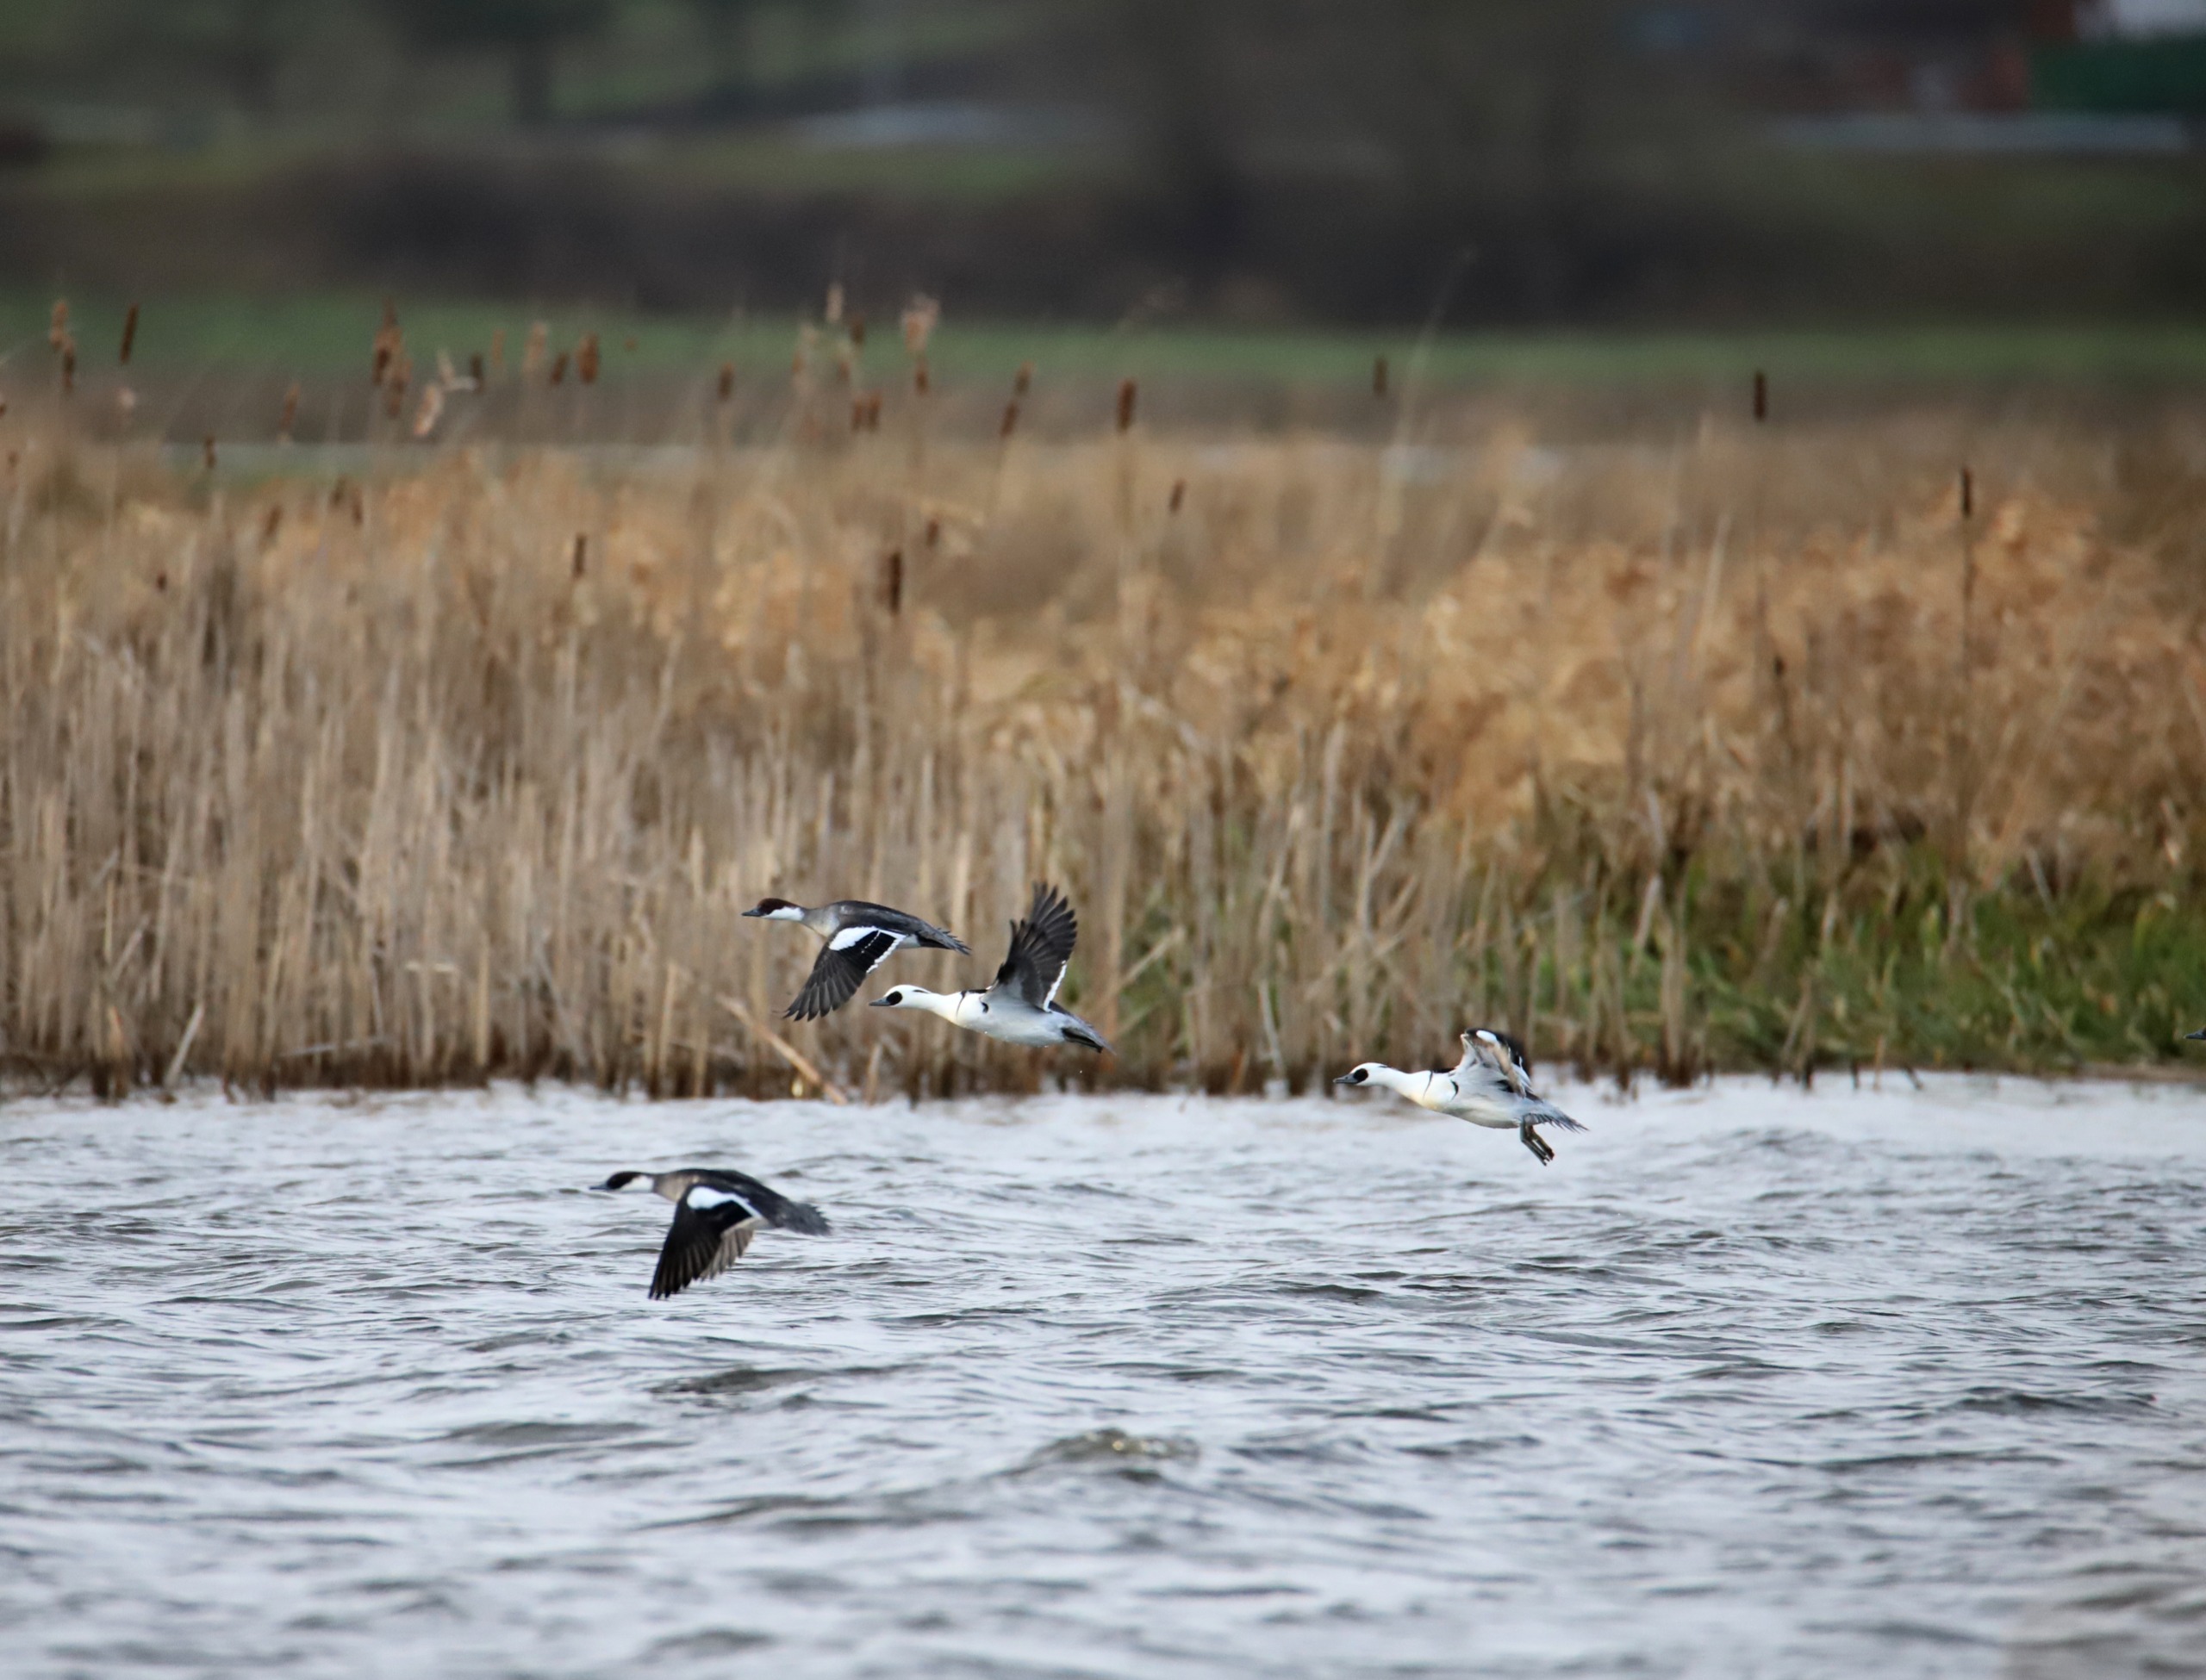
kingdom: Animalia
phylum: Chordata
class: Aves
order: Anseriformes
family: Anatidae
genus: Mergellus
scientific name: Mergellus albellus
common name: Lille skallesluger
